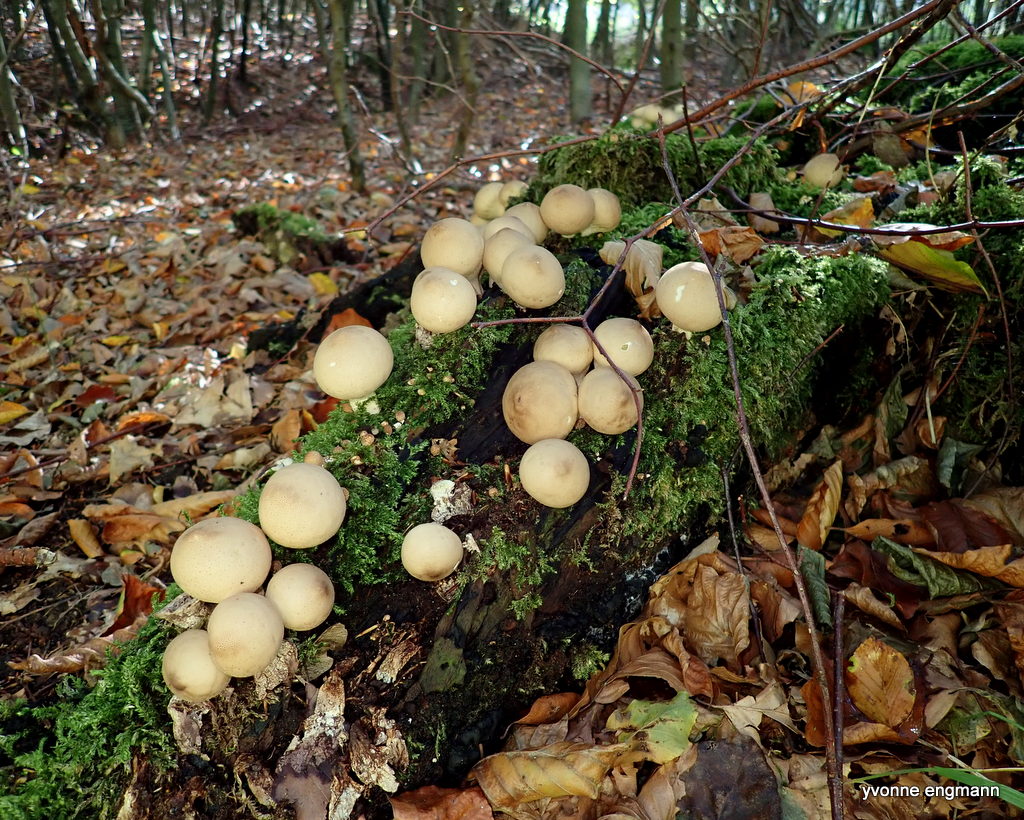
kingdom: Fungi
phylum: Basidiomycota
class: Agaricomycetes
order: Agaricales
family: Lycoperdaceae
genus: Apioperdon
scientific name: Apioperdon pyriforme
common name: pære-støvbold
